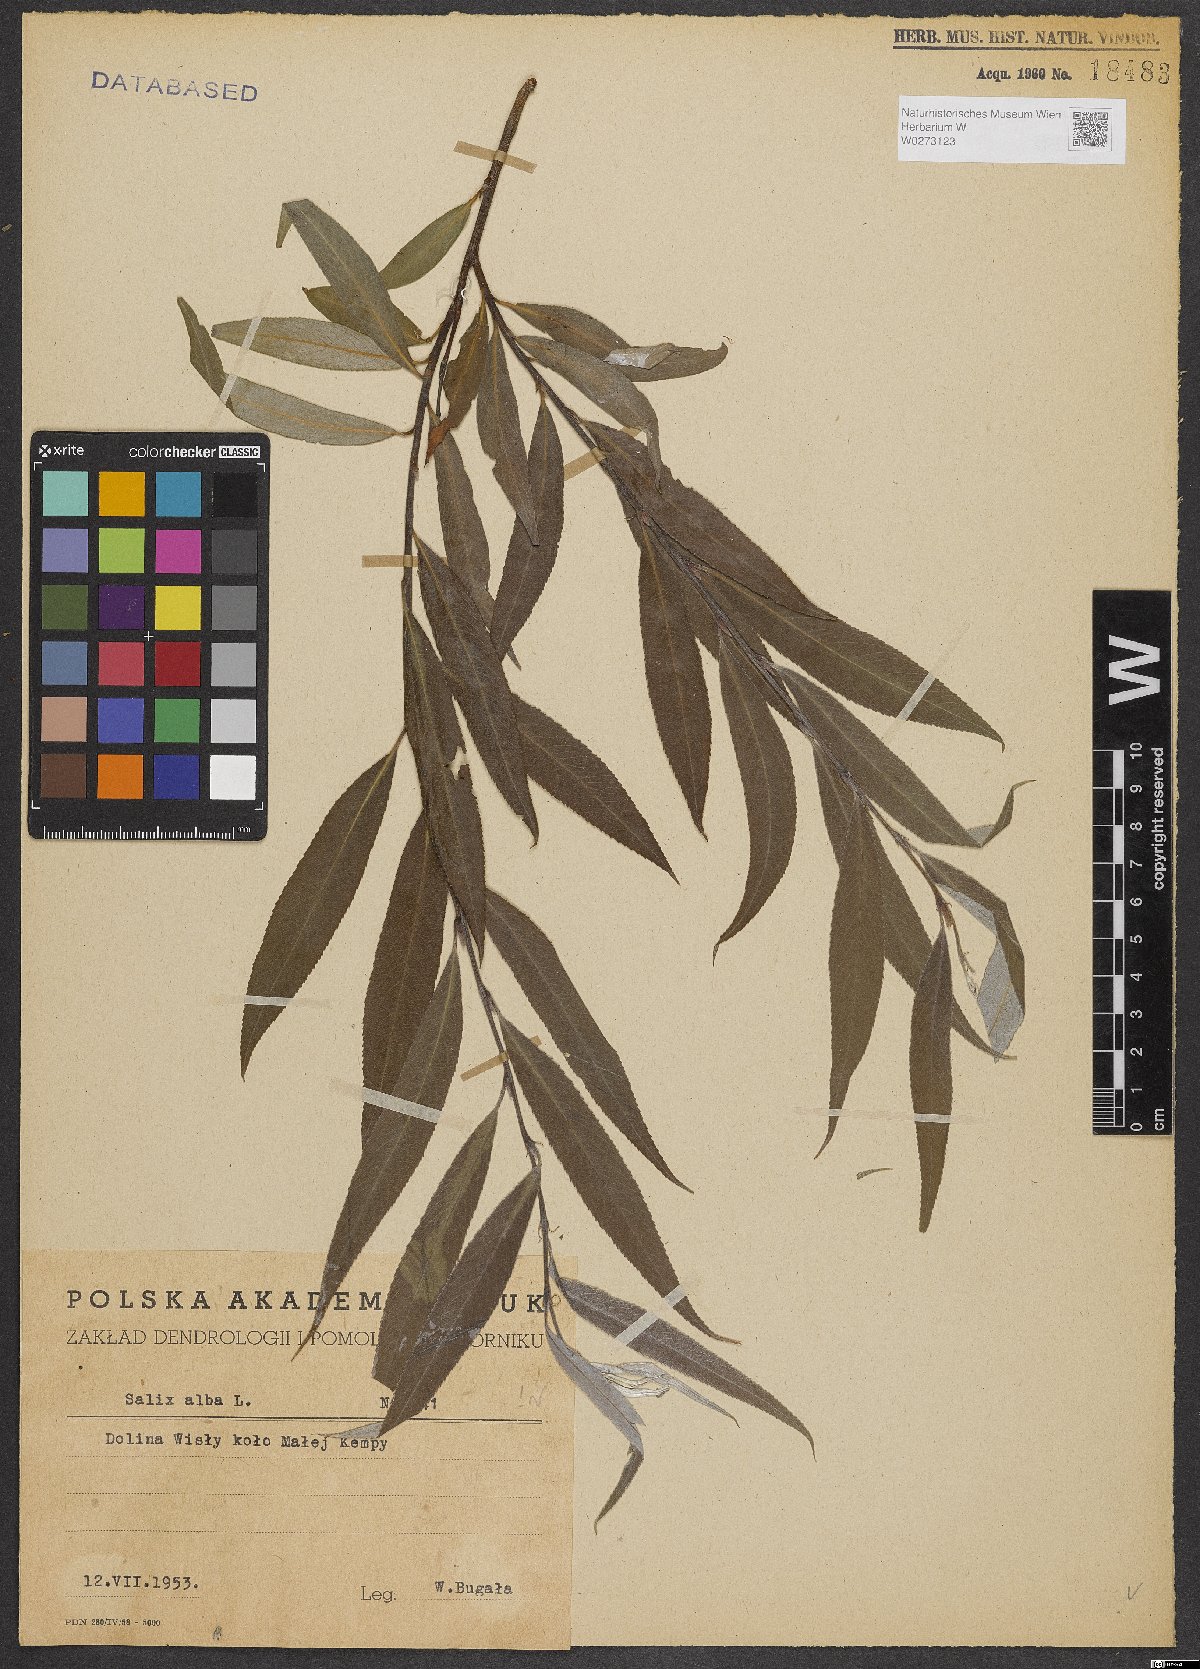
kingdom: Plantae
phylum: Tracheophyta
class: Magnoliopsida
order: Malpighiales
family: Salicaceae
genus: Salix
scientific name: Salix alba
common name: White willow
